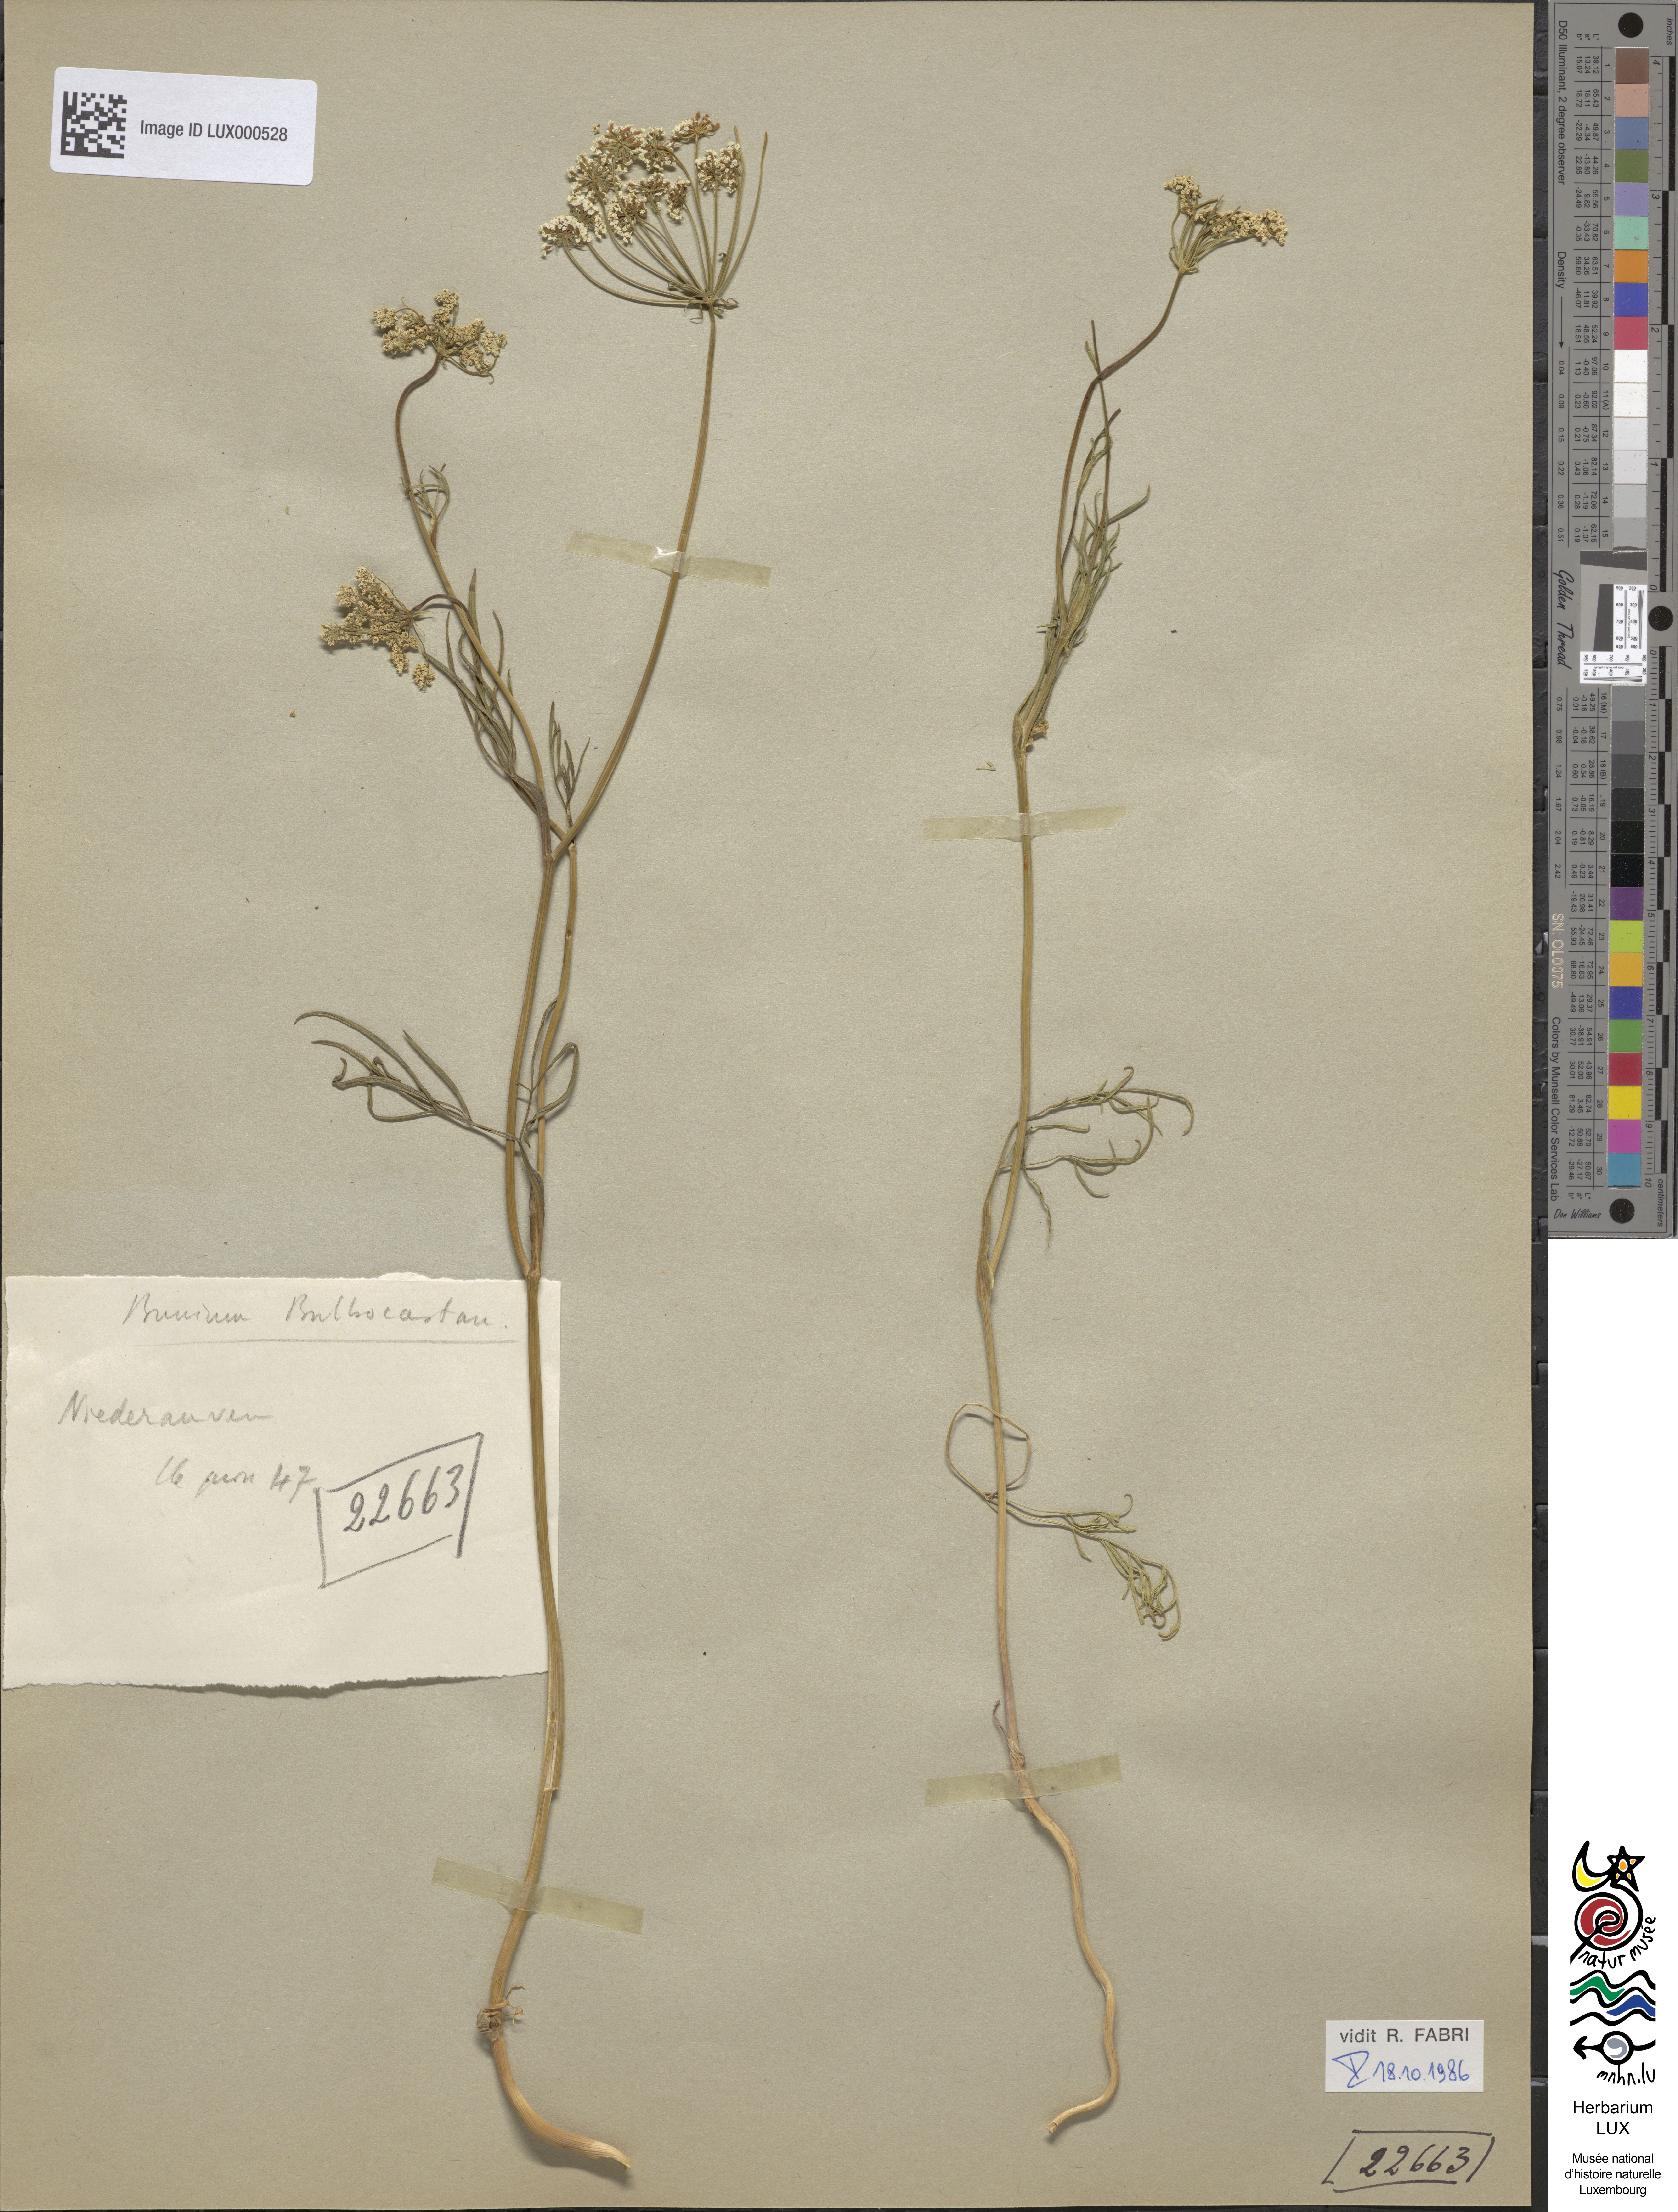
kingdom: Plantae
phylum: Tracheophyta
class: Magnoliopsida
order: Apiales
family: Apiaceae
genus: Bunium
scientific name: Bunium bulbocastanum
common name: Great pignut
